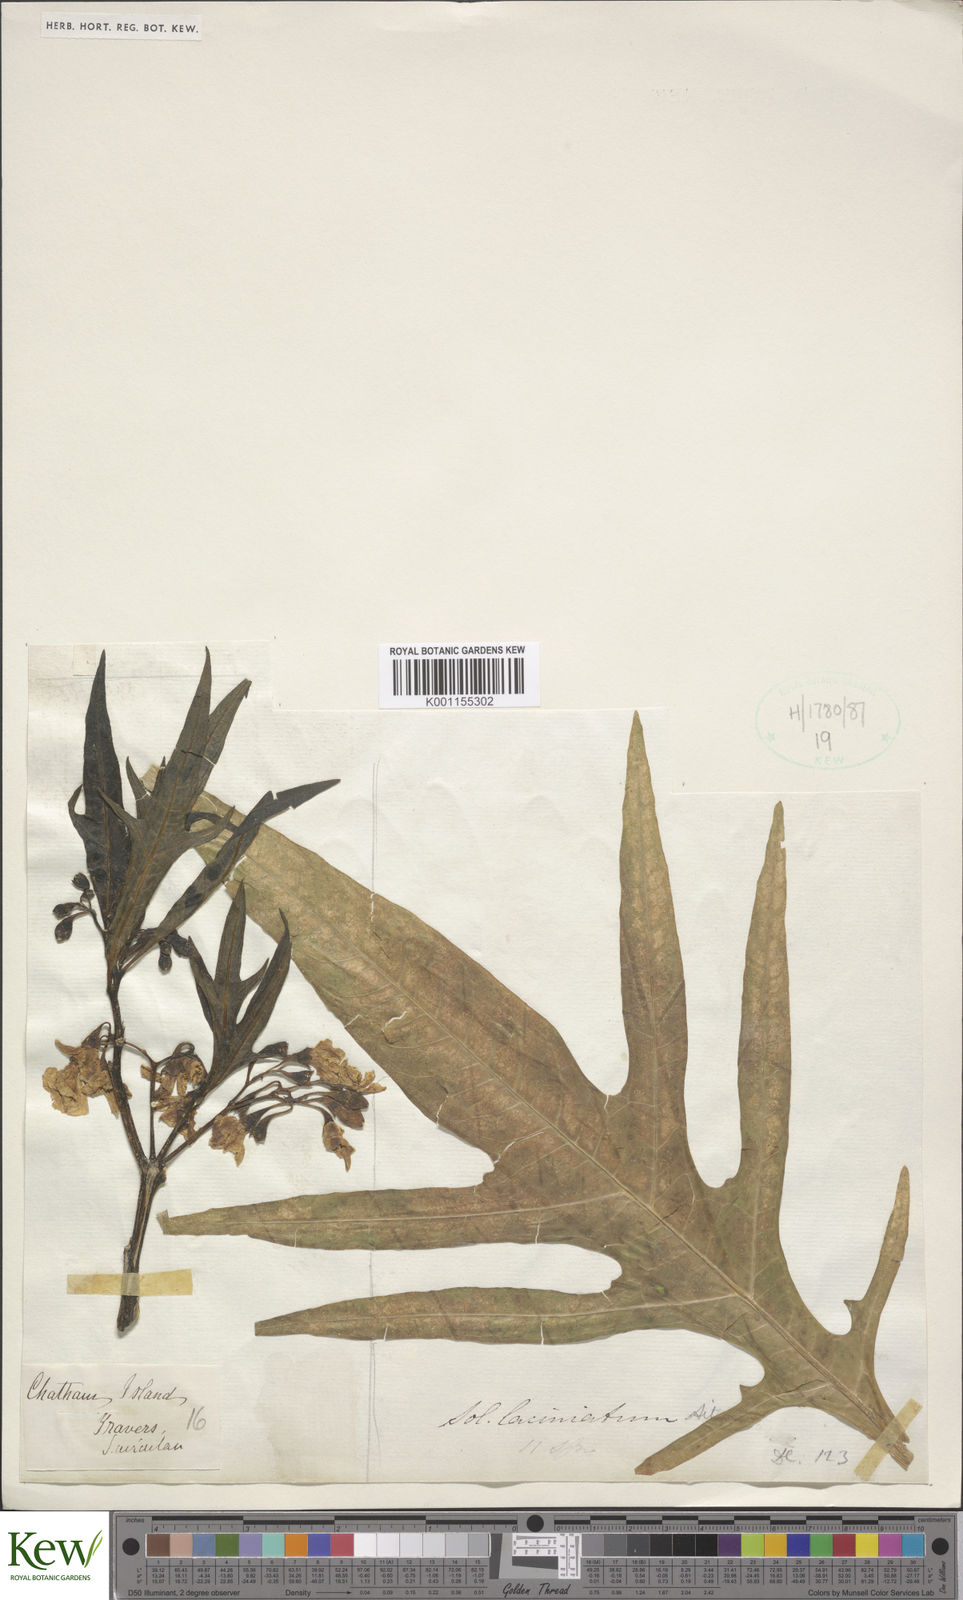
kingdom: Plantae
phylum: Tracheophyta
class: Magnoliopsida
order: Solanales
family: Solanaceae
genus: Solanum
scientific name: Solanum laciniatum
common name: Kangaroo-apple
